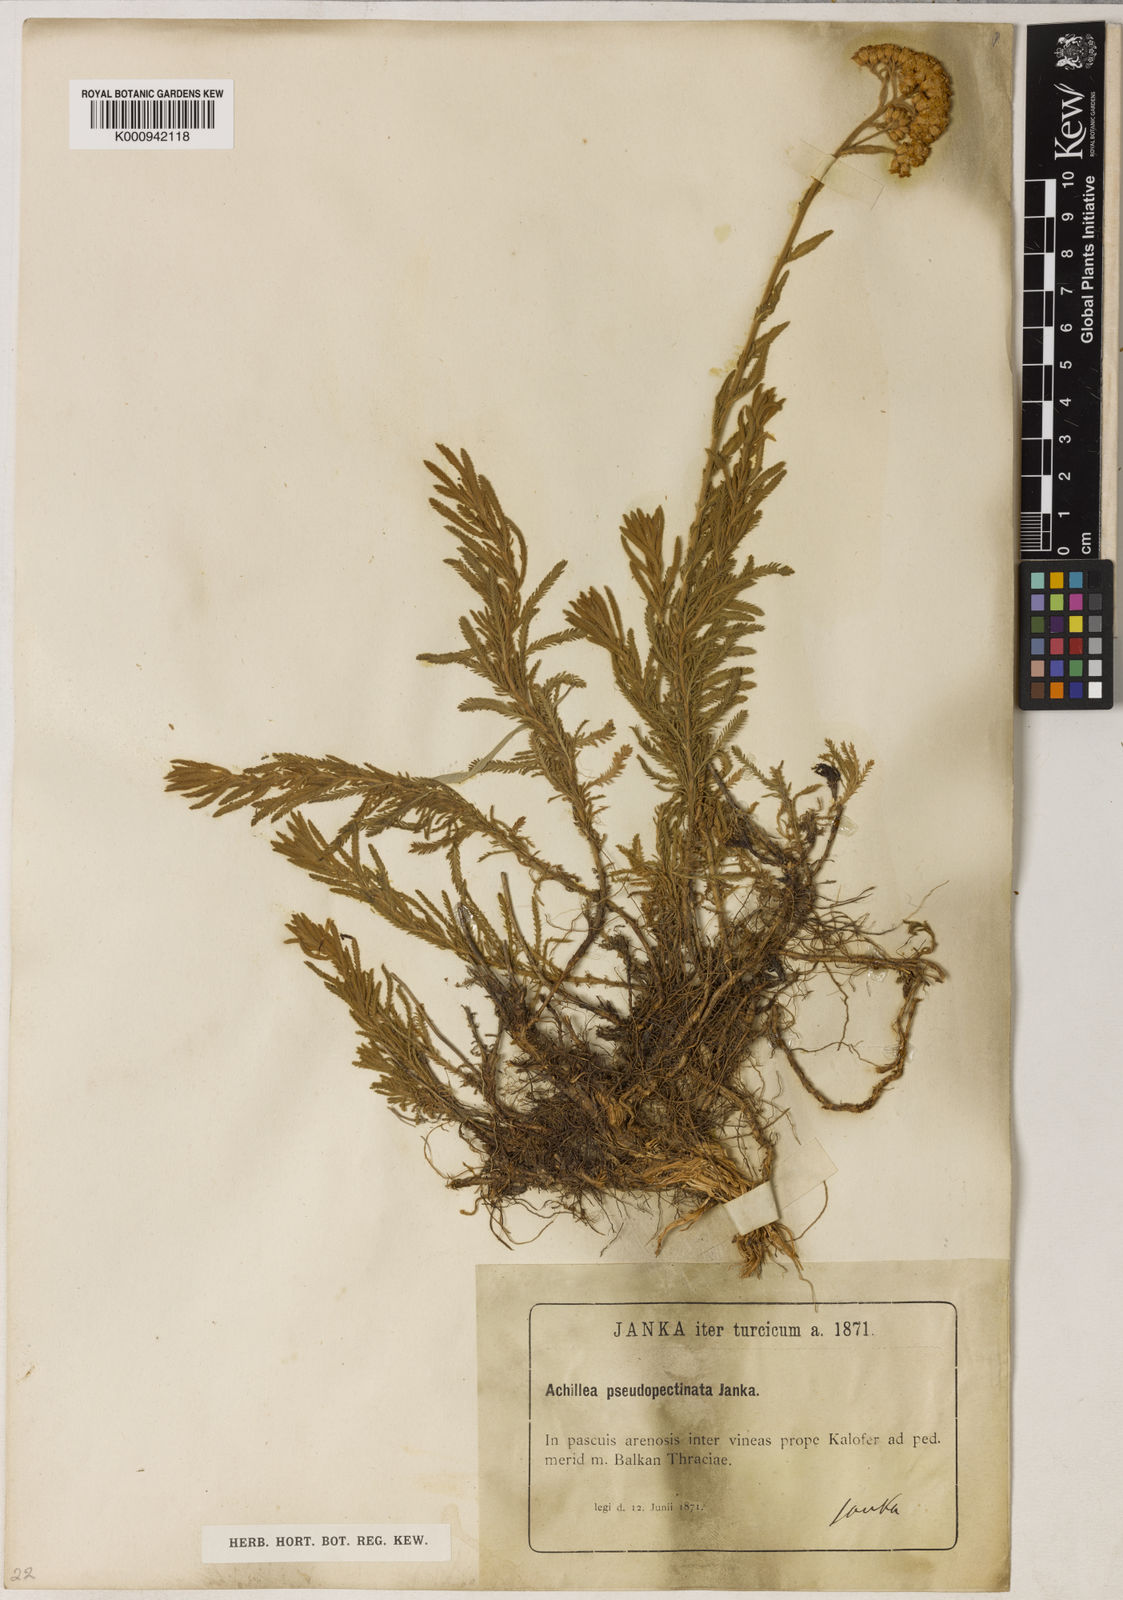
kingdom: Plantae
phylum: Tracheophyta
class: Magnoliopsida
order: Asterales
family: Asteraceae
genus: Achillea
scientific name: Achillea pseudopectinata
